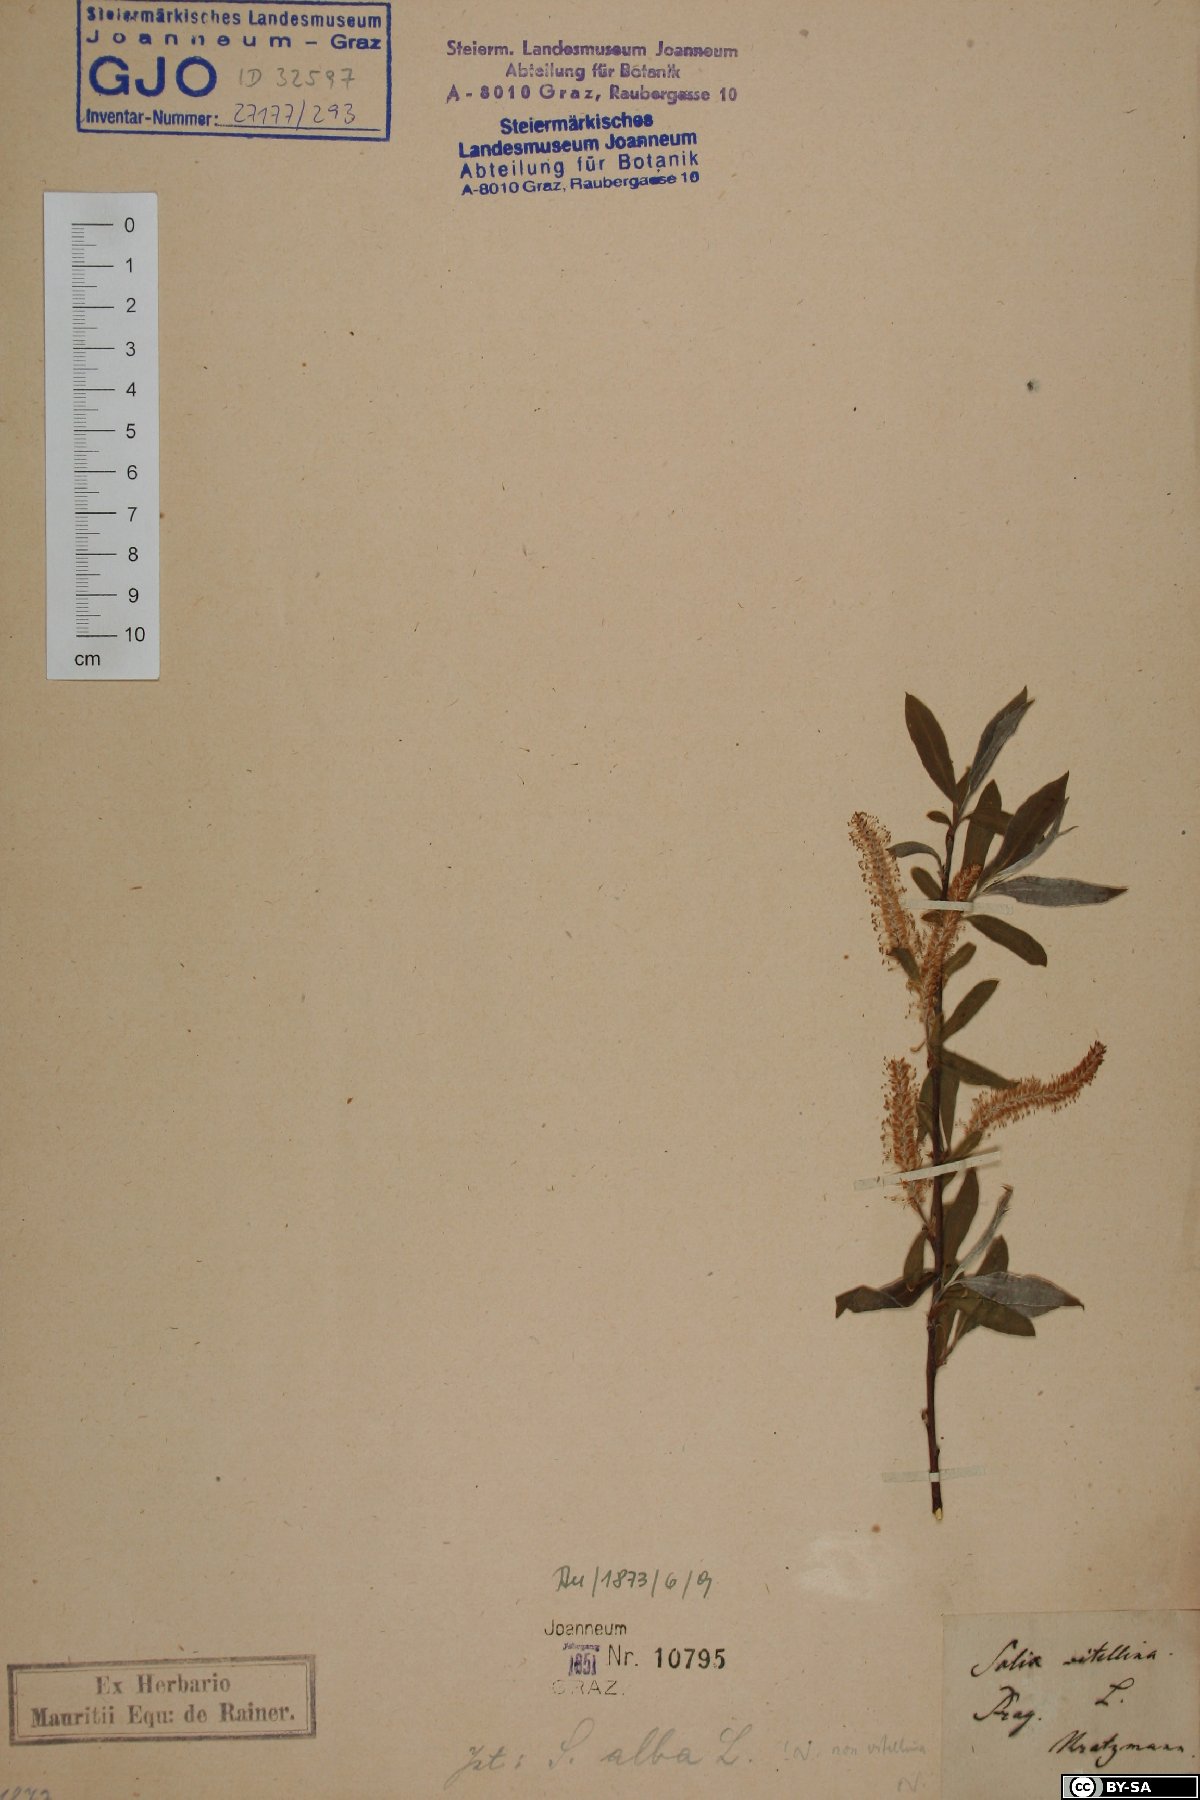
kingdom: Plantae
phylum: Tracheophyta
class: Magnoliopsida
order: Malpighiales
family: Salicaceae
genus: Salix
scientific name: Salix alba
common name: White willow
